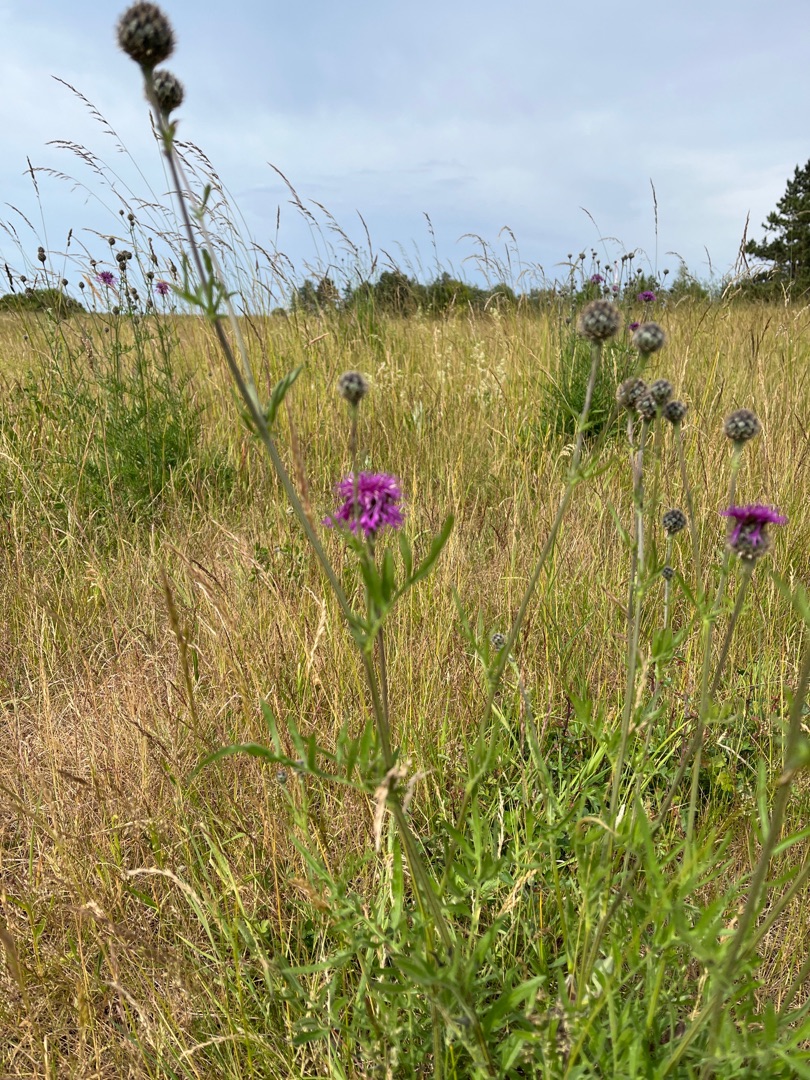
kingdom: Plantae
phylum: Tracheophyta
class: Magnoliopsida
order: Asterales
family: Asteraceae
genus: Centaurea
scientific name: Centaurea scabiosa
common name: Stor knopurt
